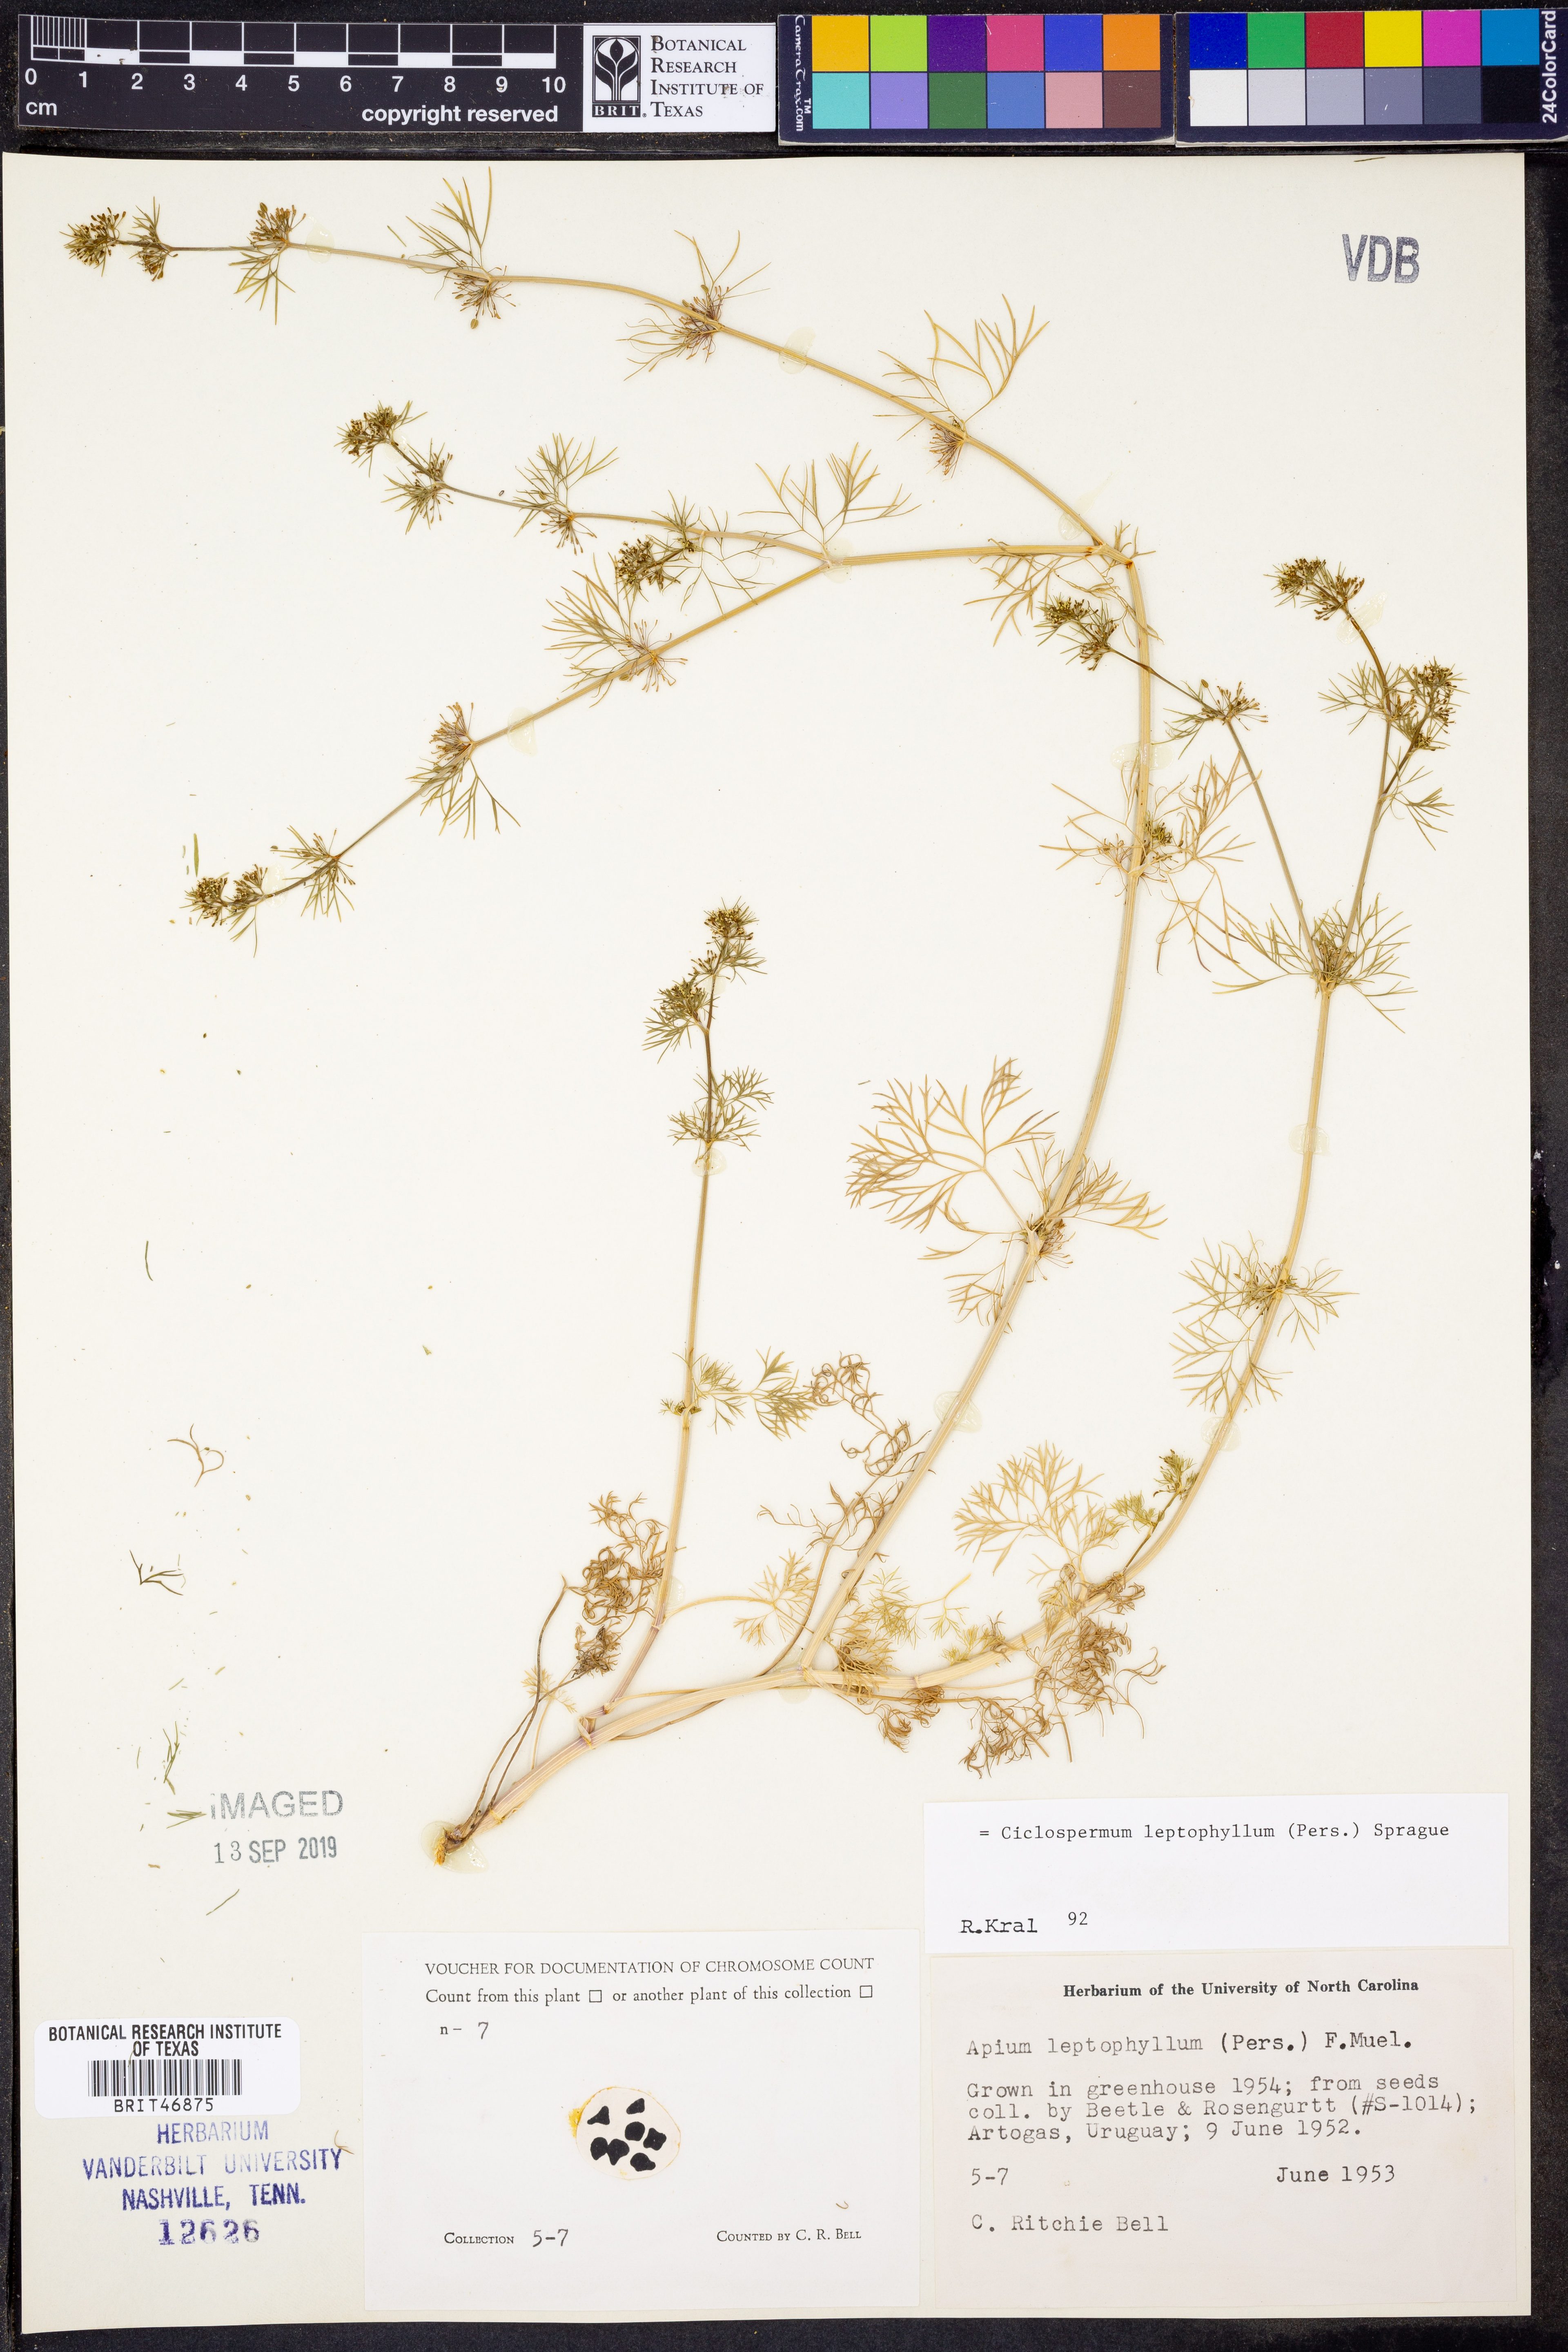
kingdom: Plantae
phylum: Tracheophyta
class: Magnoliopsida
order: Apiales
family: Apiaceae
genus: Cyclospermum
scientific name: Cyclospermum leptophyllum
